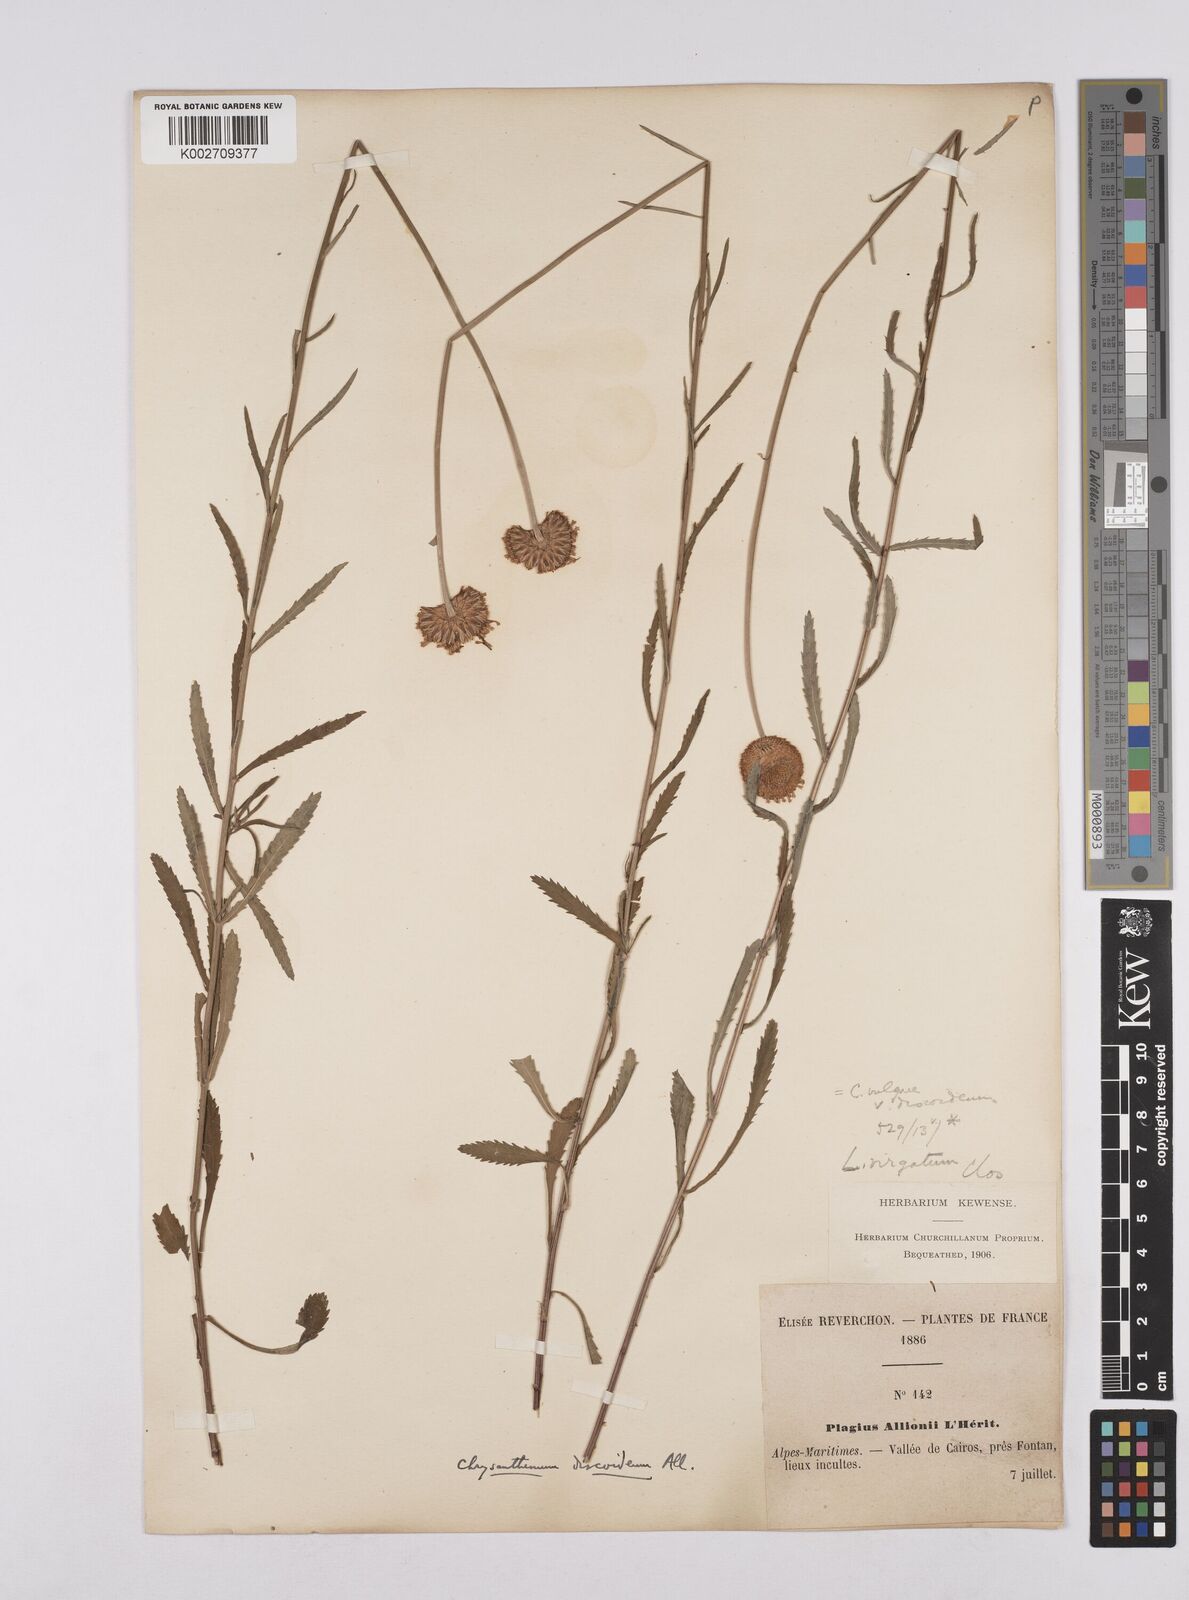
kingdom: Plantae
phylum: Tracheophyta
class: Magnoliopsida
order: Asterales
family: Asteraceae
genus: Leucanthemum
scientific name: Leucanthemum vulgare
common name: Oxeye daisy
